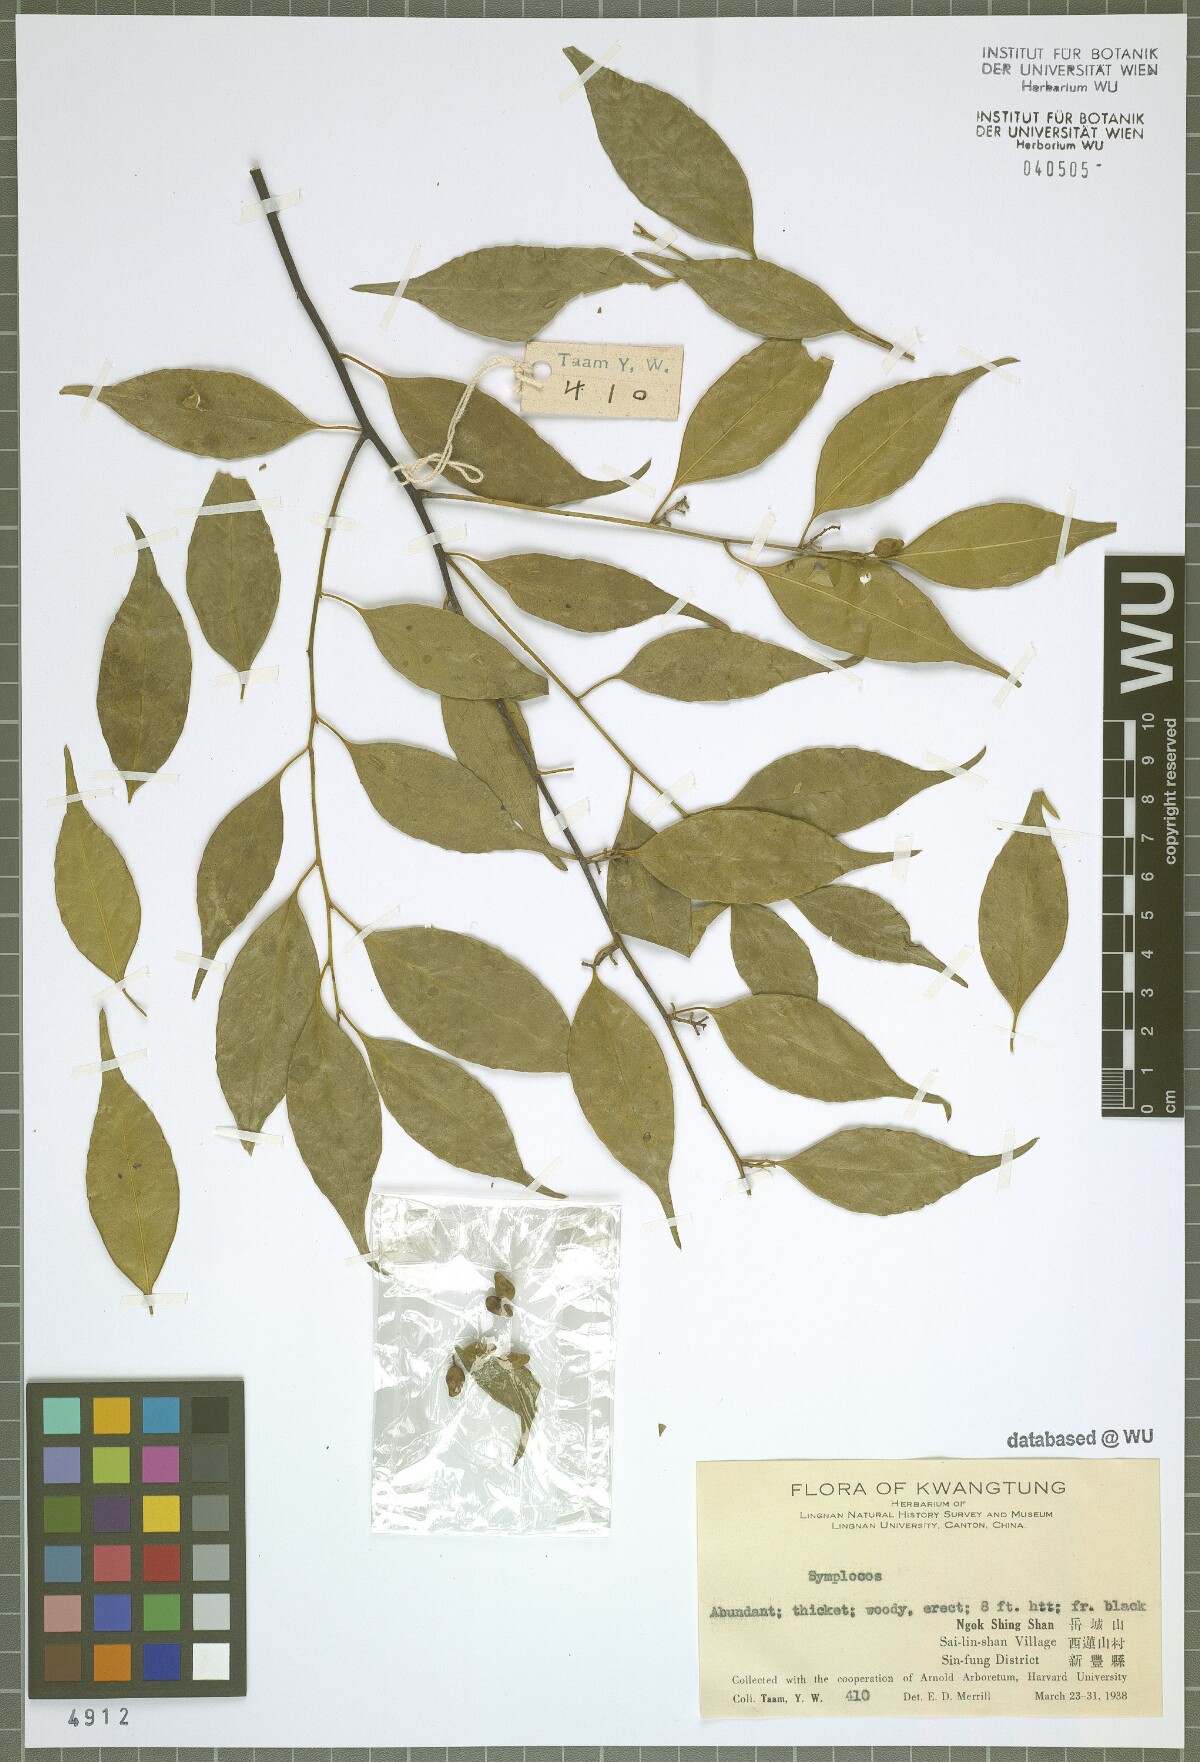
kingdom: Plantae
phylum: Tracheophyta
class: Magnoliopsida
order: Ericales
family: Symplocaceae
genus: Symplocos
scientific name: Symplocos
